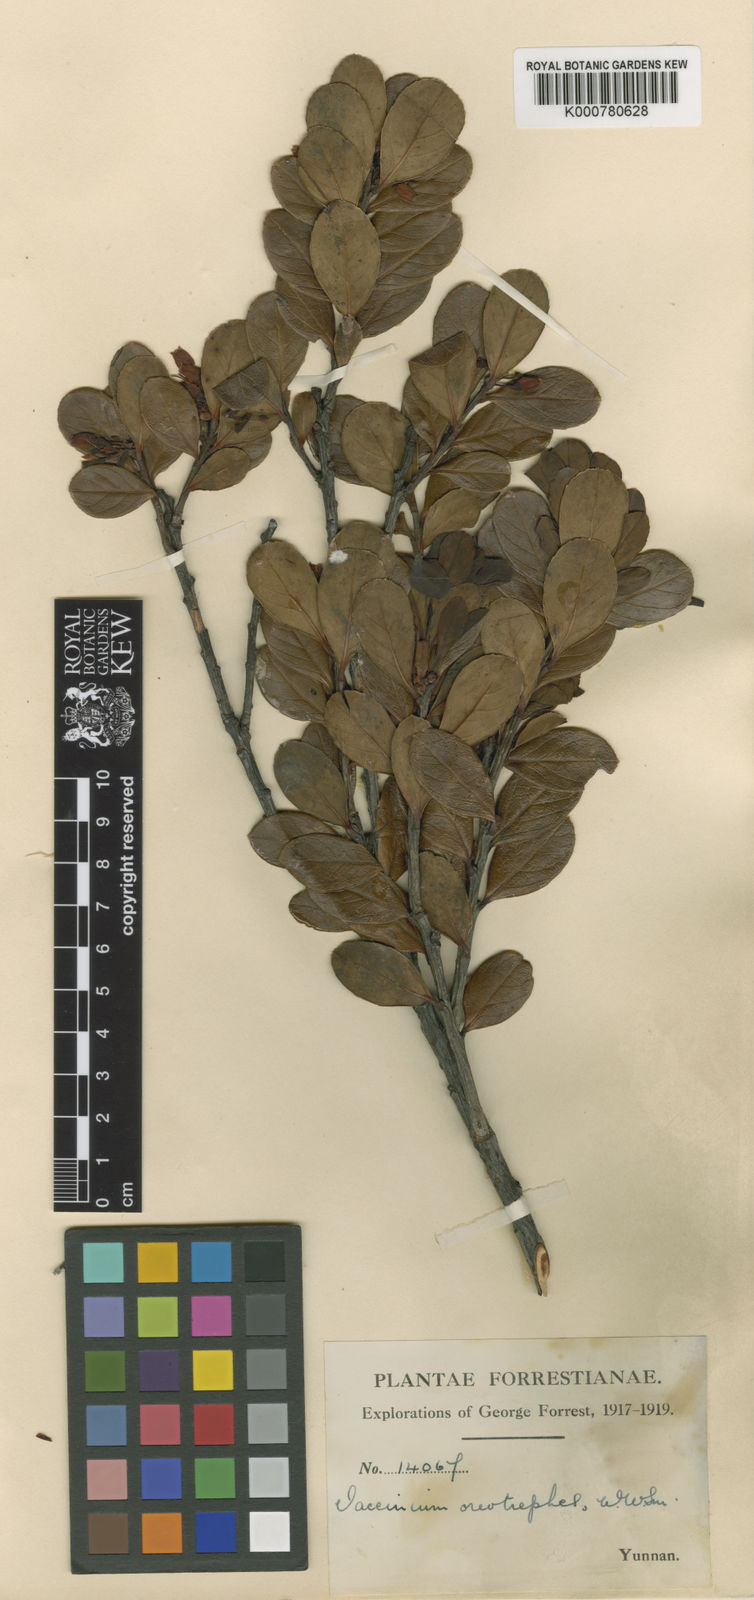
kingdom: Plantae
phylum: Tracheophyta
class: Magnoliopsida
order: Ericales
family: Ericaceae
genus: Vaccinium
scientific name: Vaccinium sikkimense
